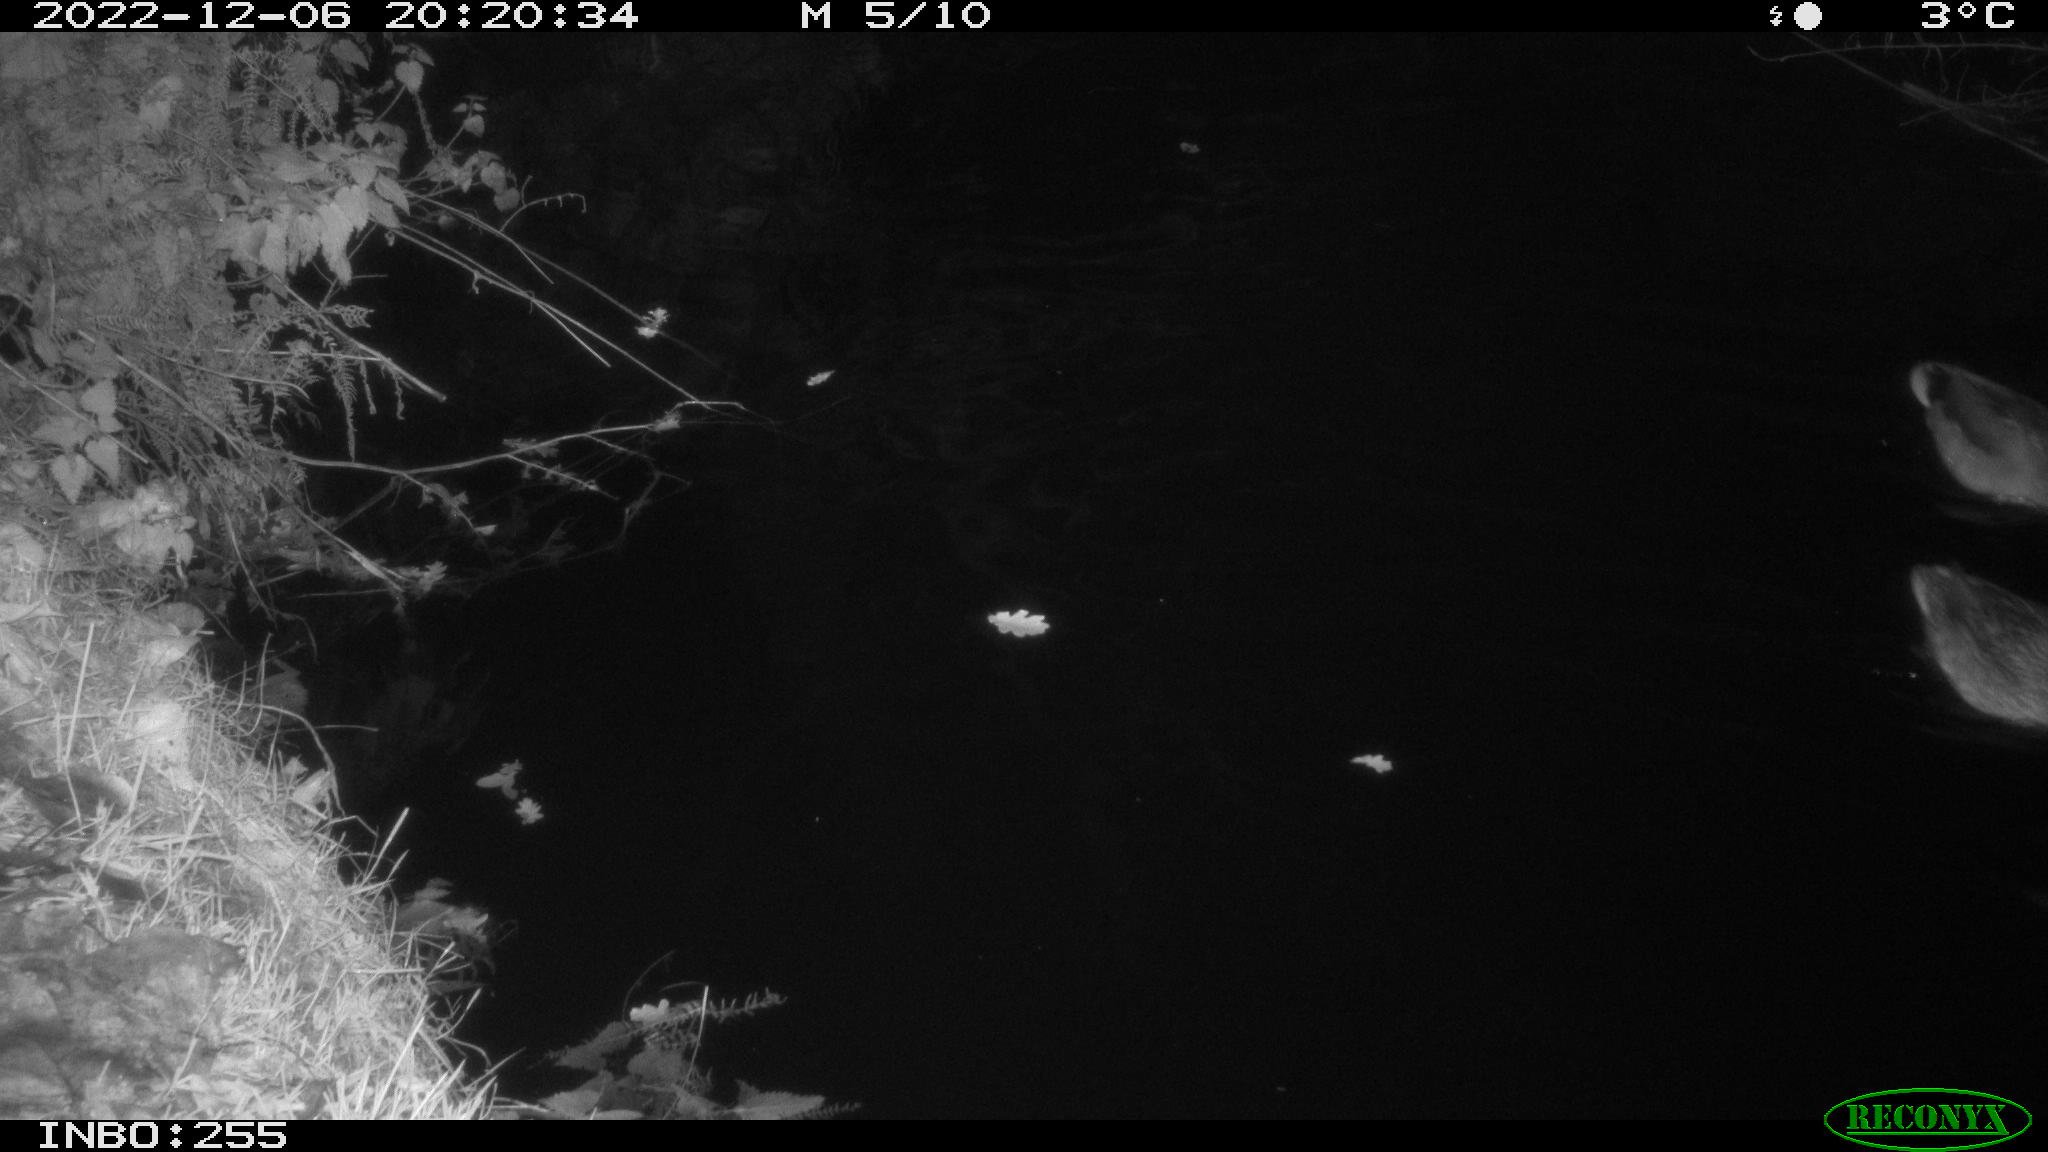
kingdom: Animalia
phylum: Chordata
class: Aves
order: Anseriformes
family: Anatidae
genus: Anas
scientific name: Anas
